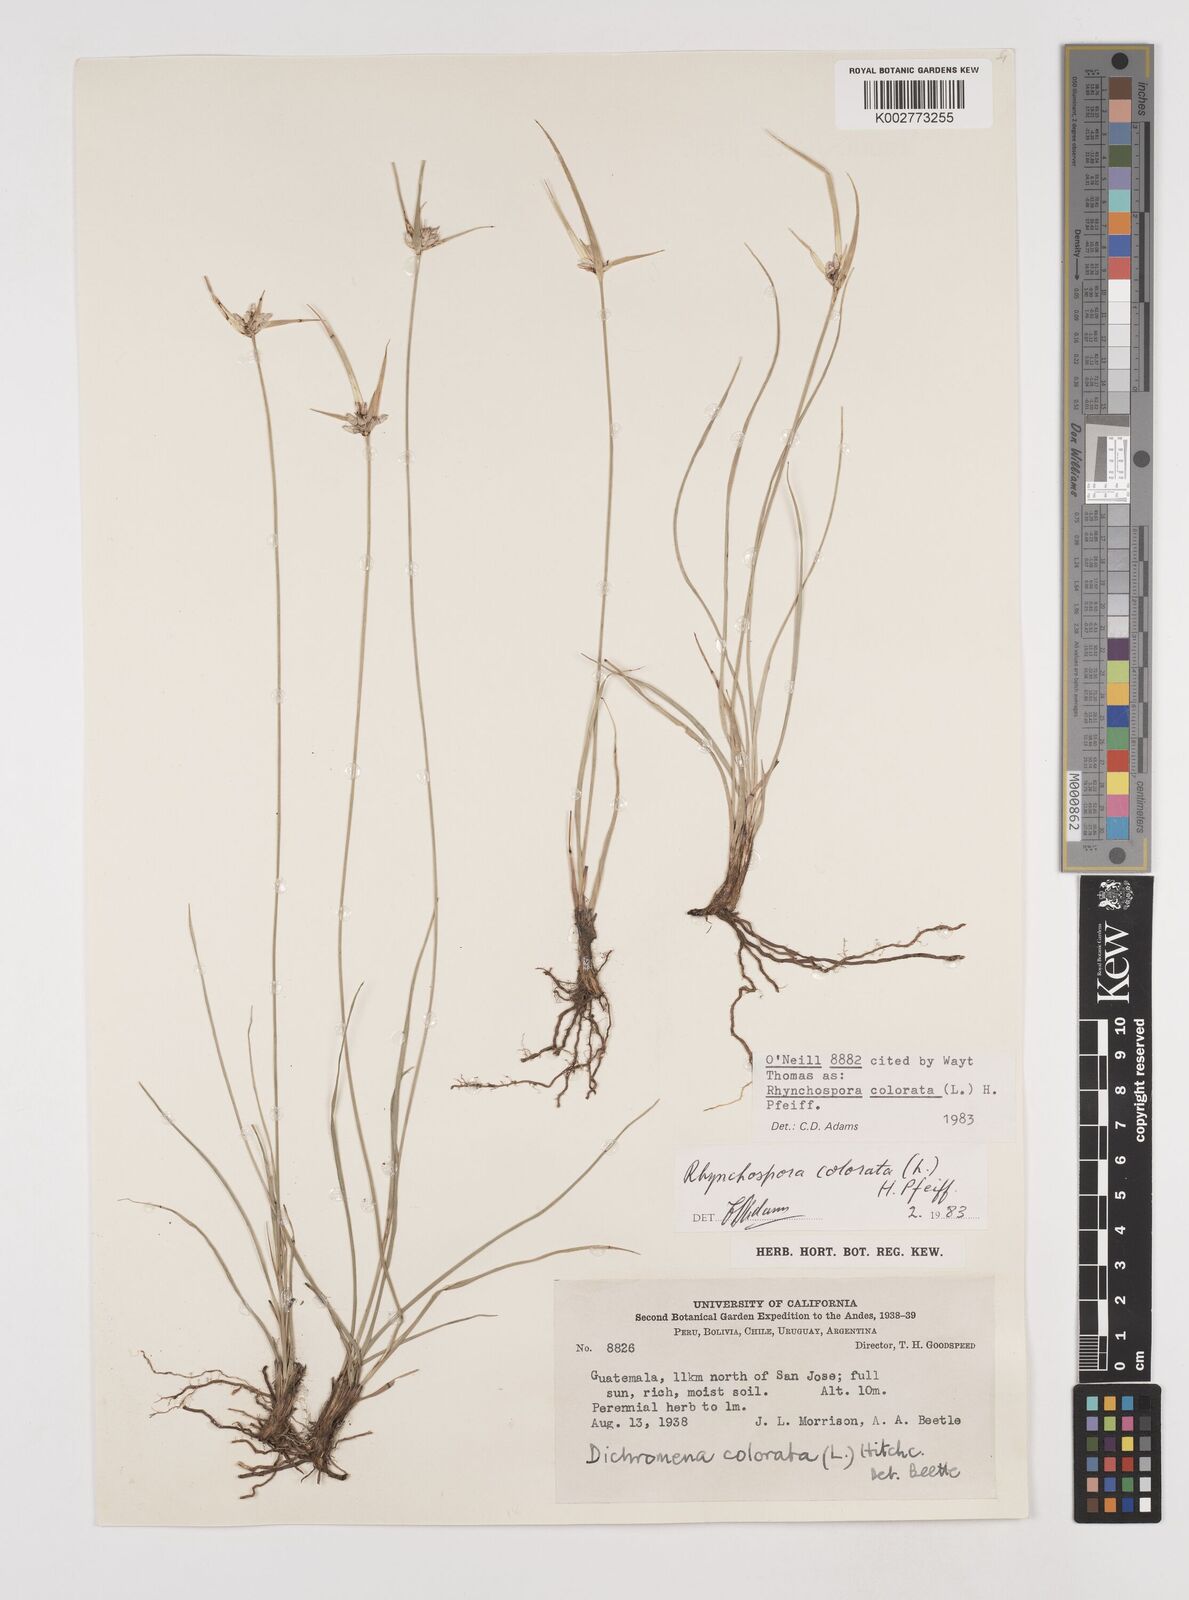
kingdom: Plantae
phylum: Tracheophyta
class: Liliopsida
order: Poales
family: Cyperaceae
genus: Rhynchospora
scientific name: Rhynchospora colorata
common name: Star sedge
